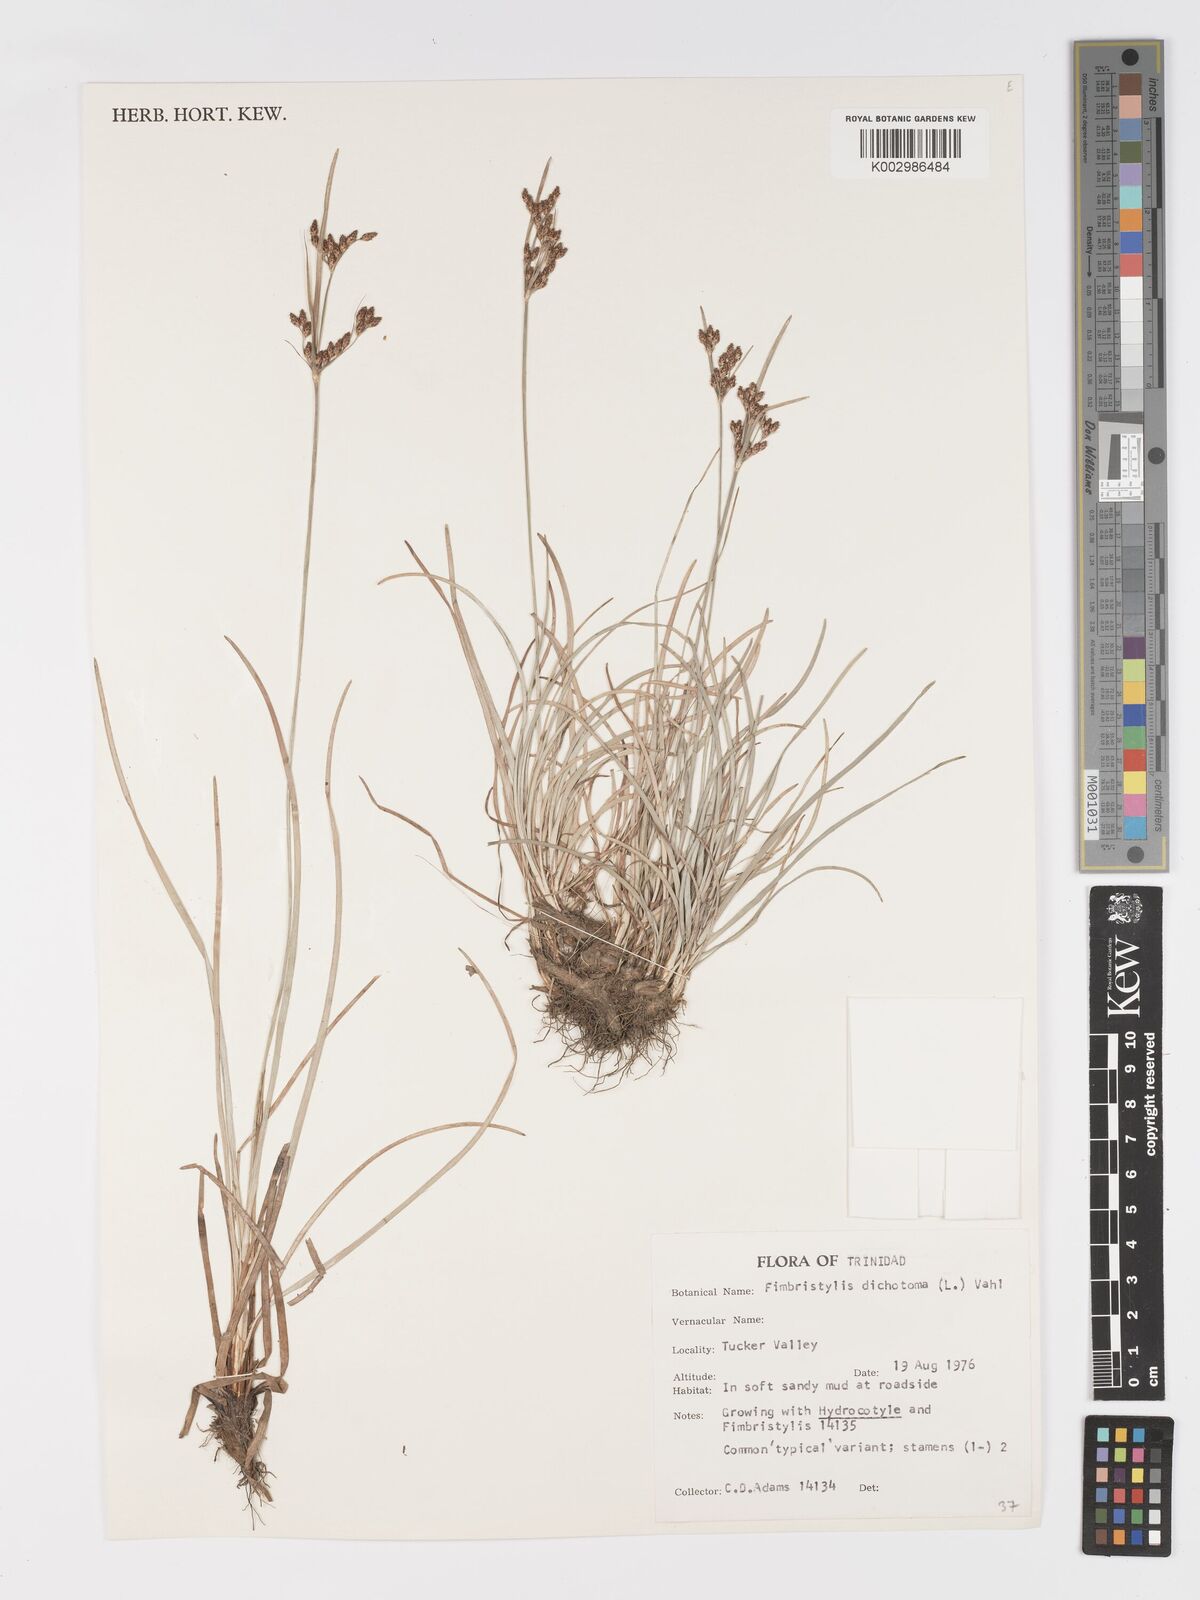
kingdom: Plantae
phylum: Tracheophyta
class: Liliopsida
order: Poales
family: Cyperaceae
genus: Fimbristylis
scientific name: Fimbristylis dichotoma
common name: Forked fimbry
